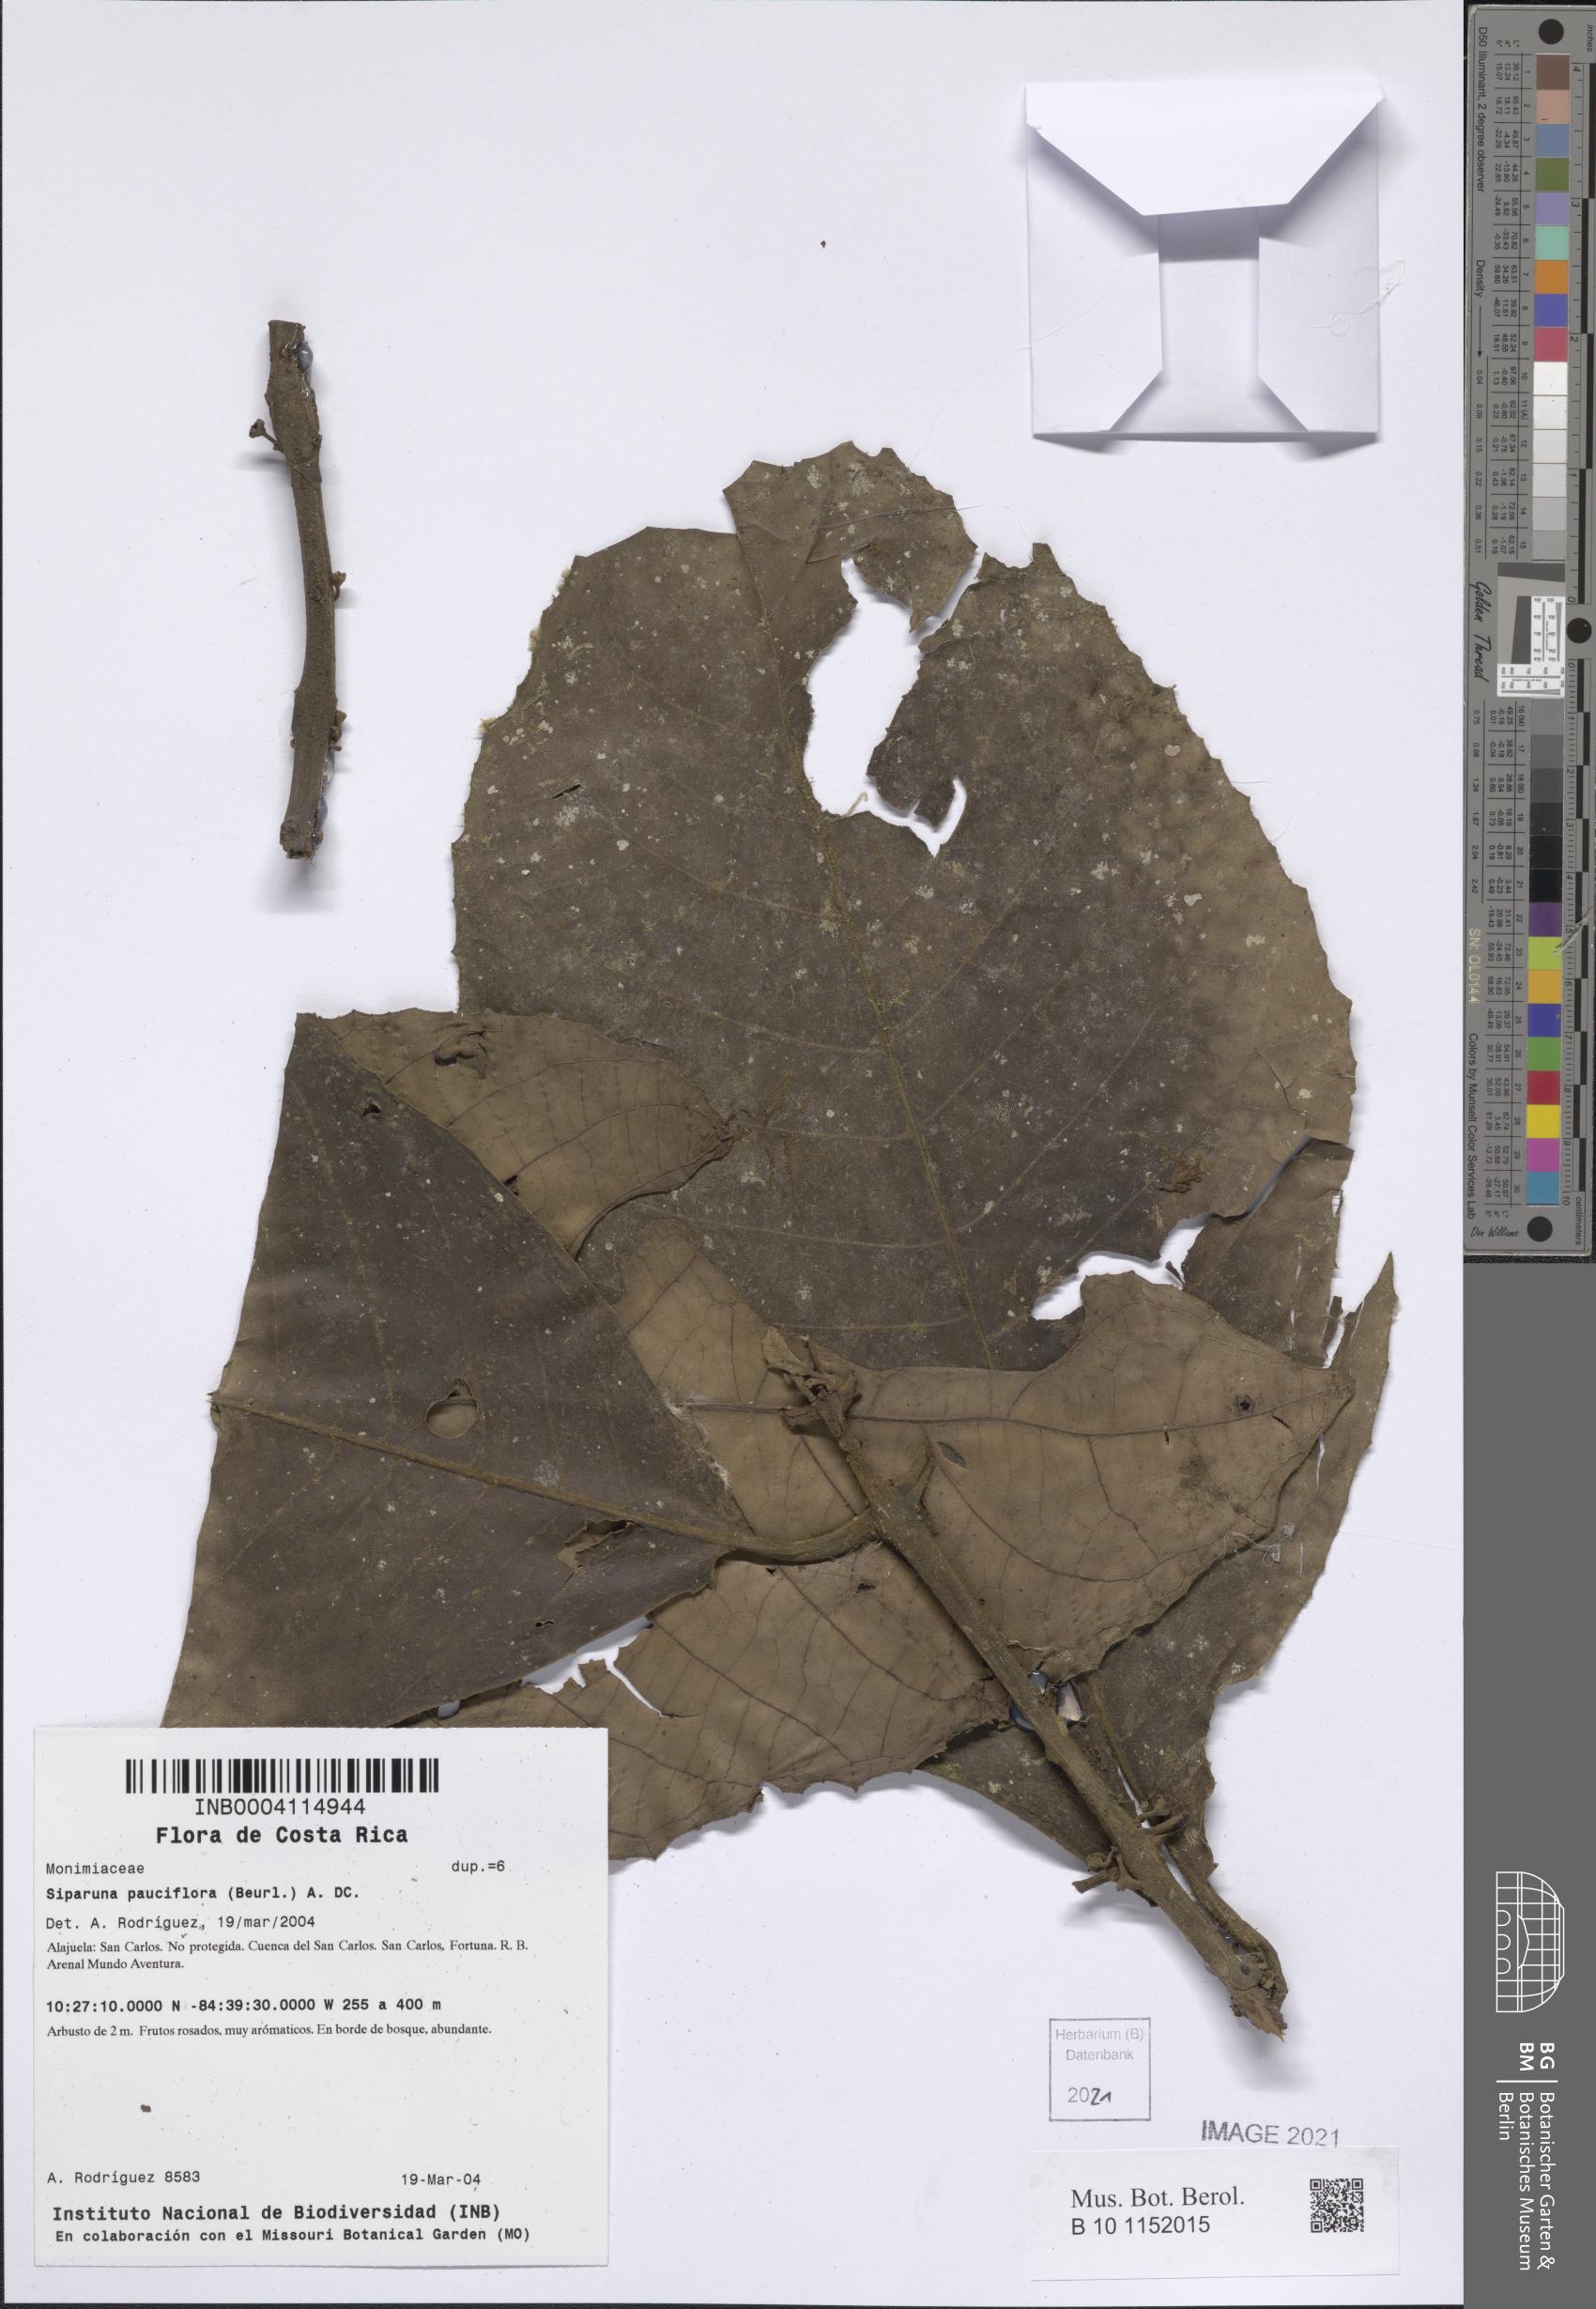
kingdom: Plantae
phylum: Tracheophyta
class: Magnoliopsida
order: Laurales
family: Siparunaceae
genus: Siparuna
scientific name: Siparuna pauciflora
